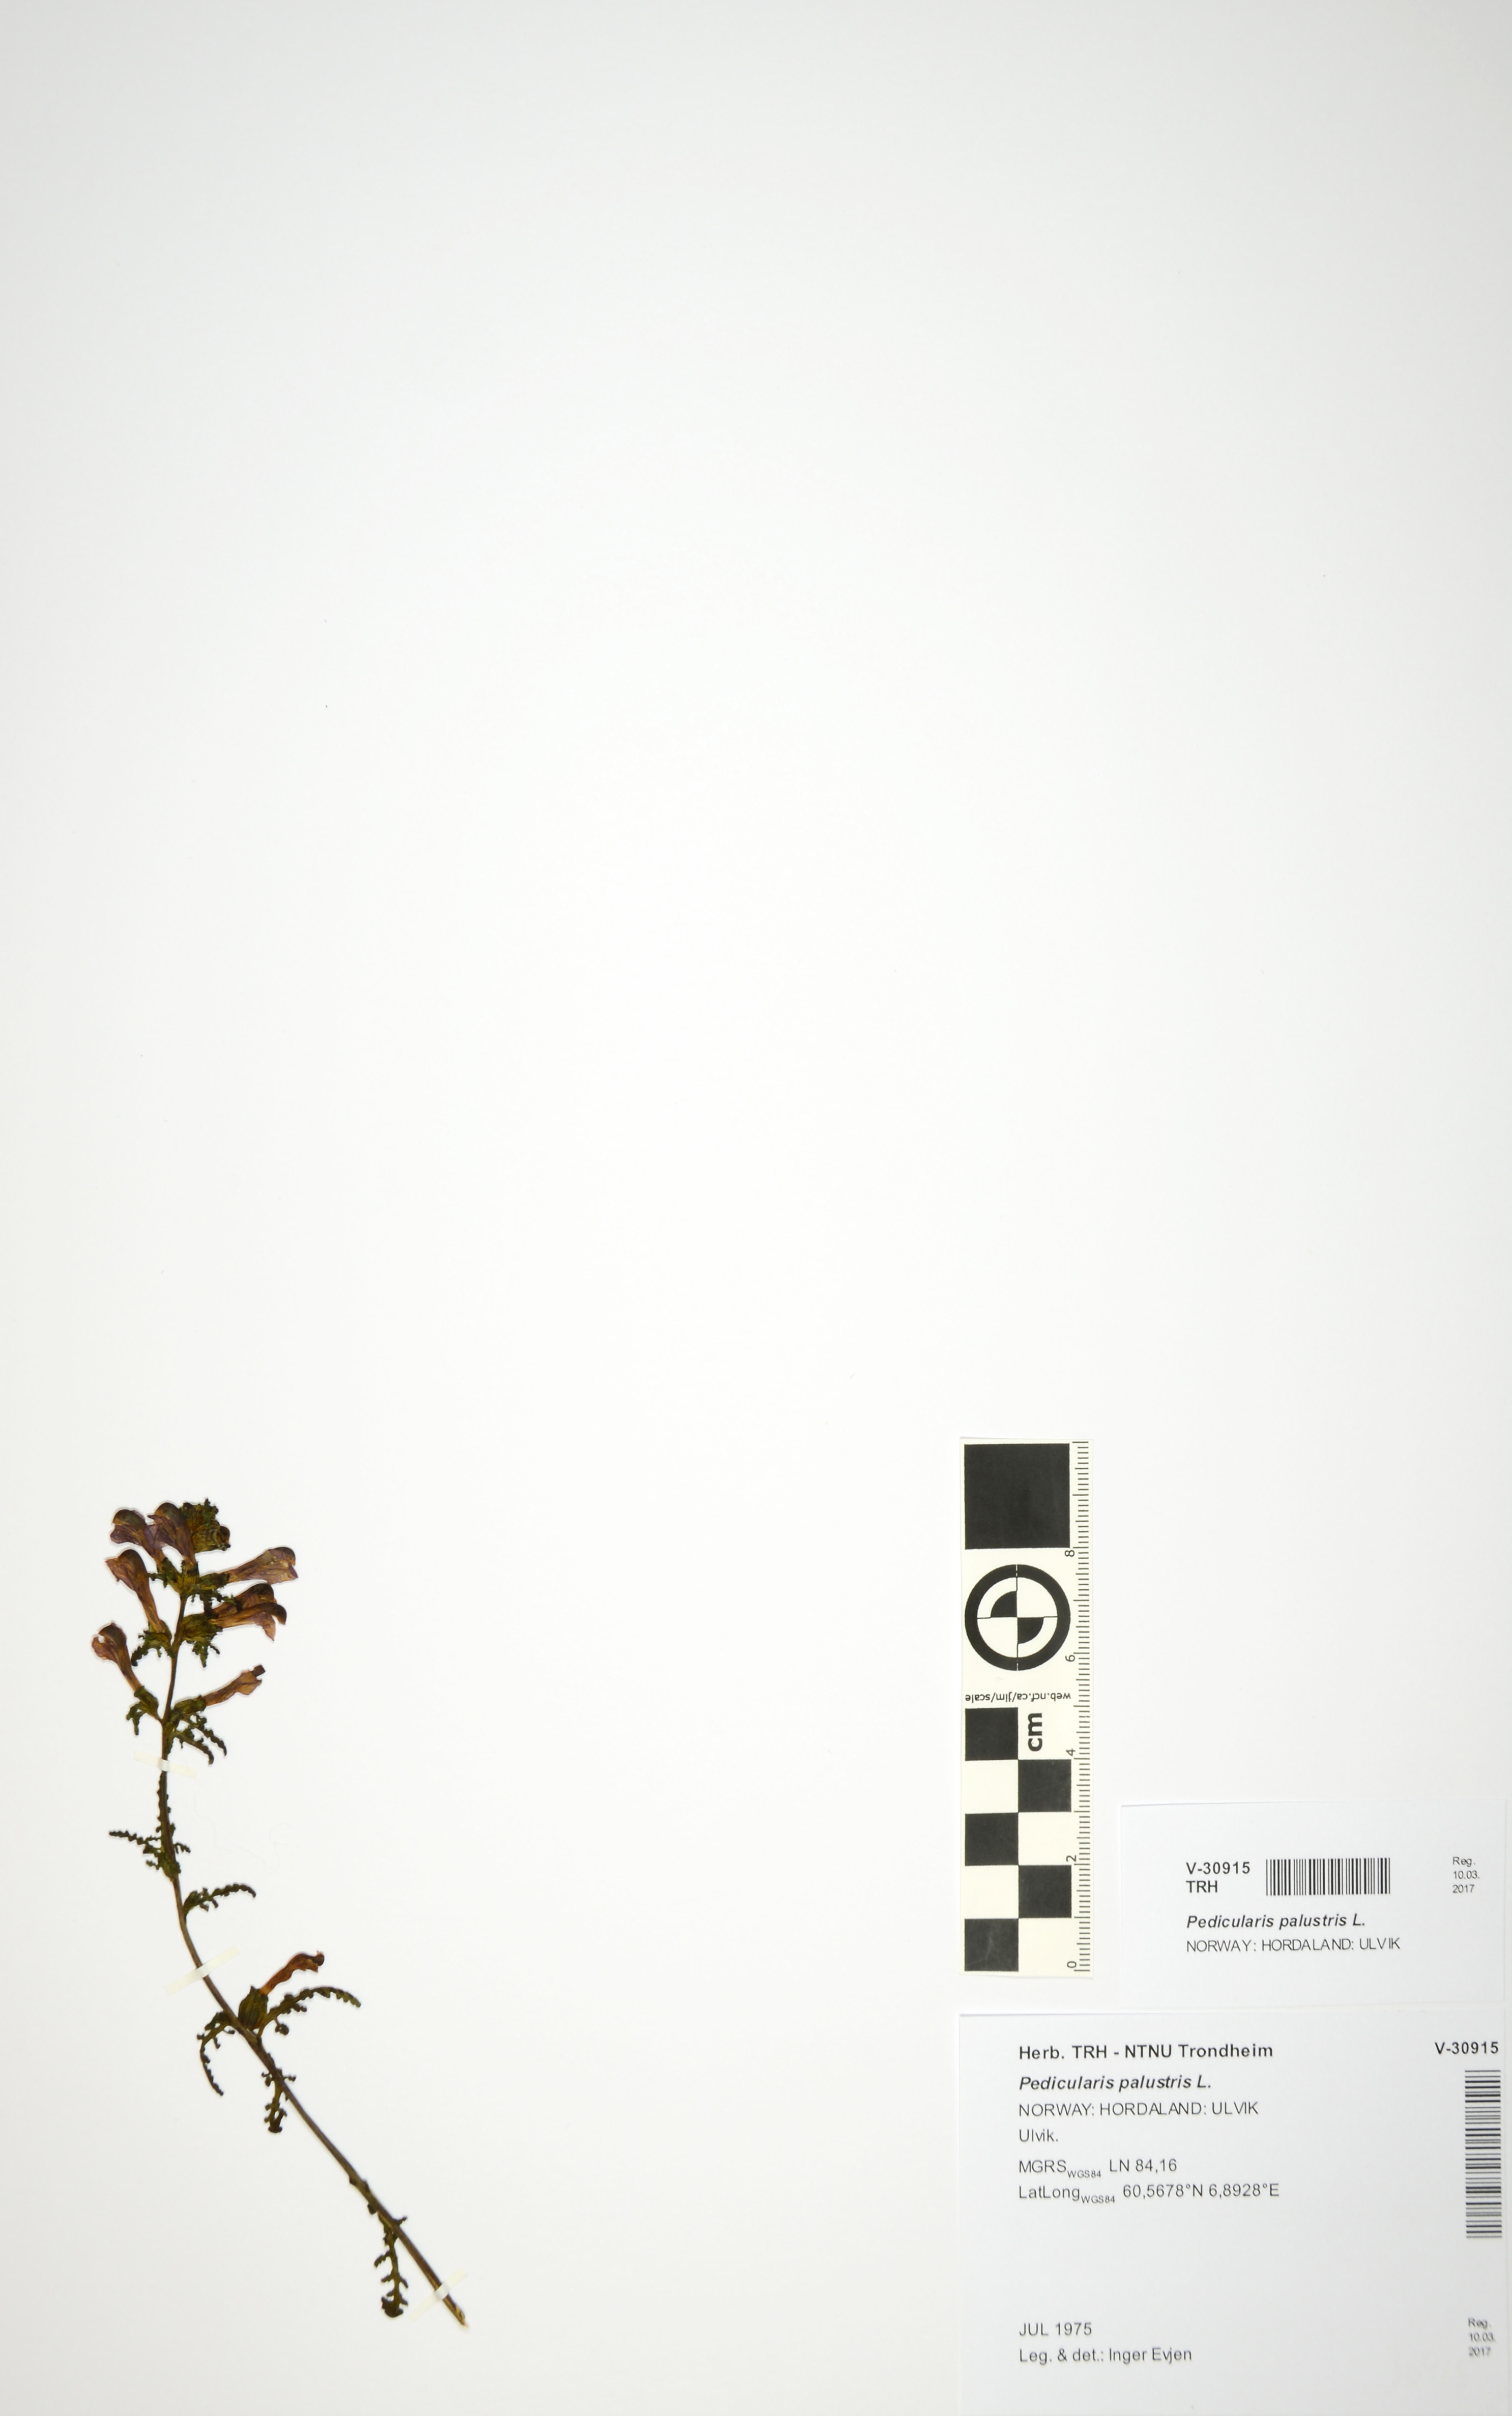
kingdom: Plantae
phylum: Tracheophyta
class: Magnoliopsida
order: Lamiales
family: Orobanchaceae
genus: Pedicularis
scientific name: Pedicularis palustris
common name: Marsh lousewort
